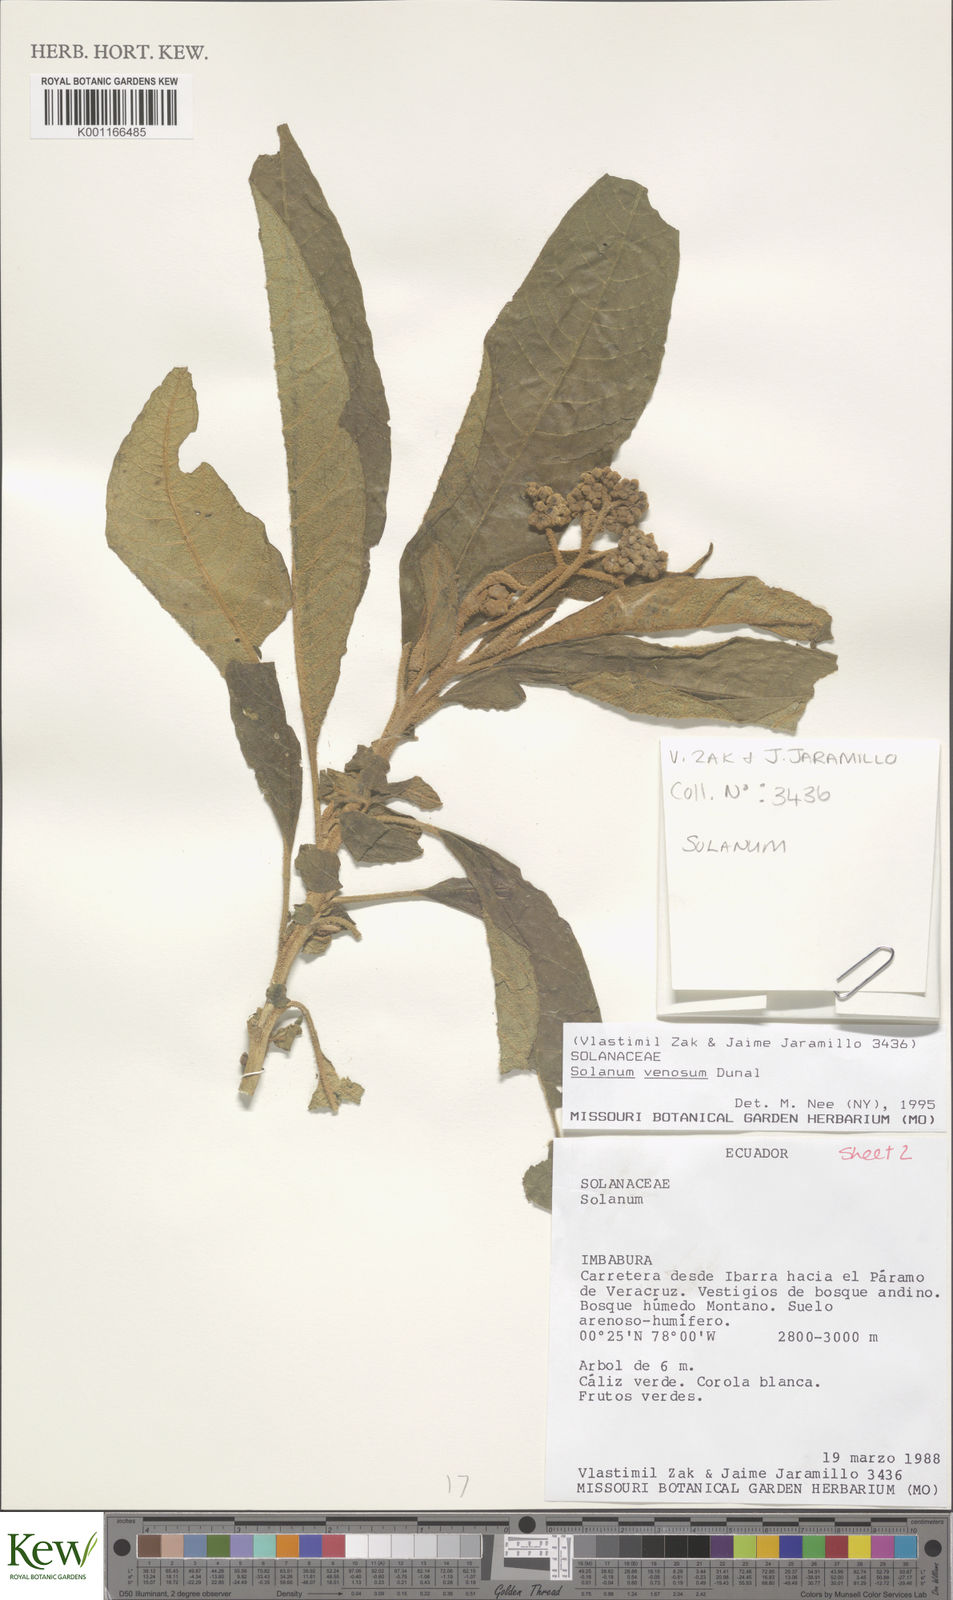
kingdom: Plantae
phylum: Tracheophyta
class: Magnoliopsida
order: Solanales
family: Solanaceae
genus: Solanum
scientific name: Solanum venosum
